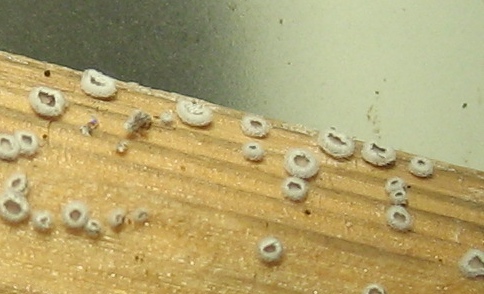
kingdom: Fungi
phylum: Basidiomycota
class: Agaricomycetes
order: Agaricales
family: Niaceae
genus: Lachnella
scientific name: Lachnella alboviolascens
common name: grå frynserede
